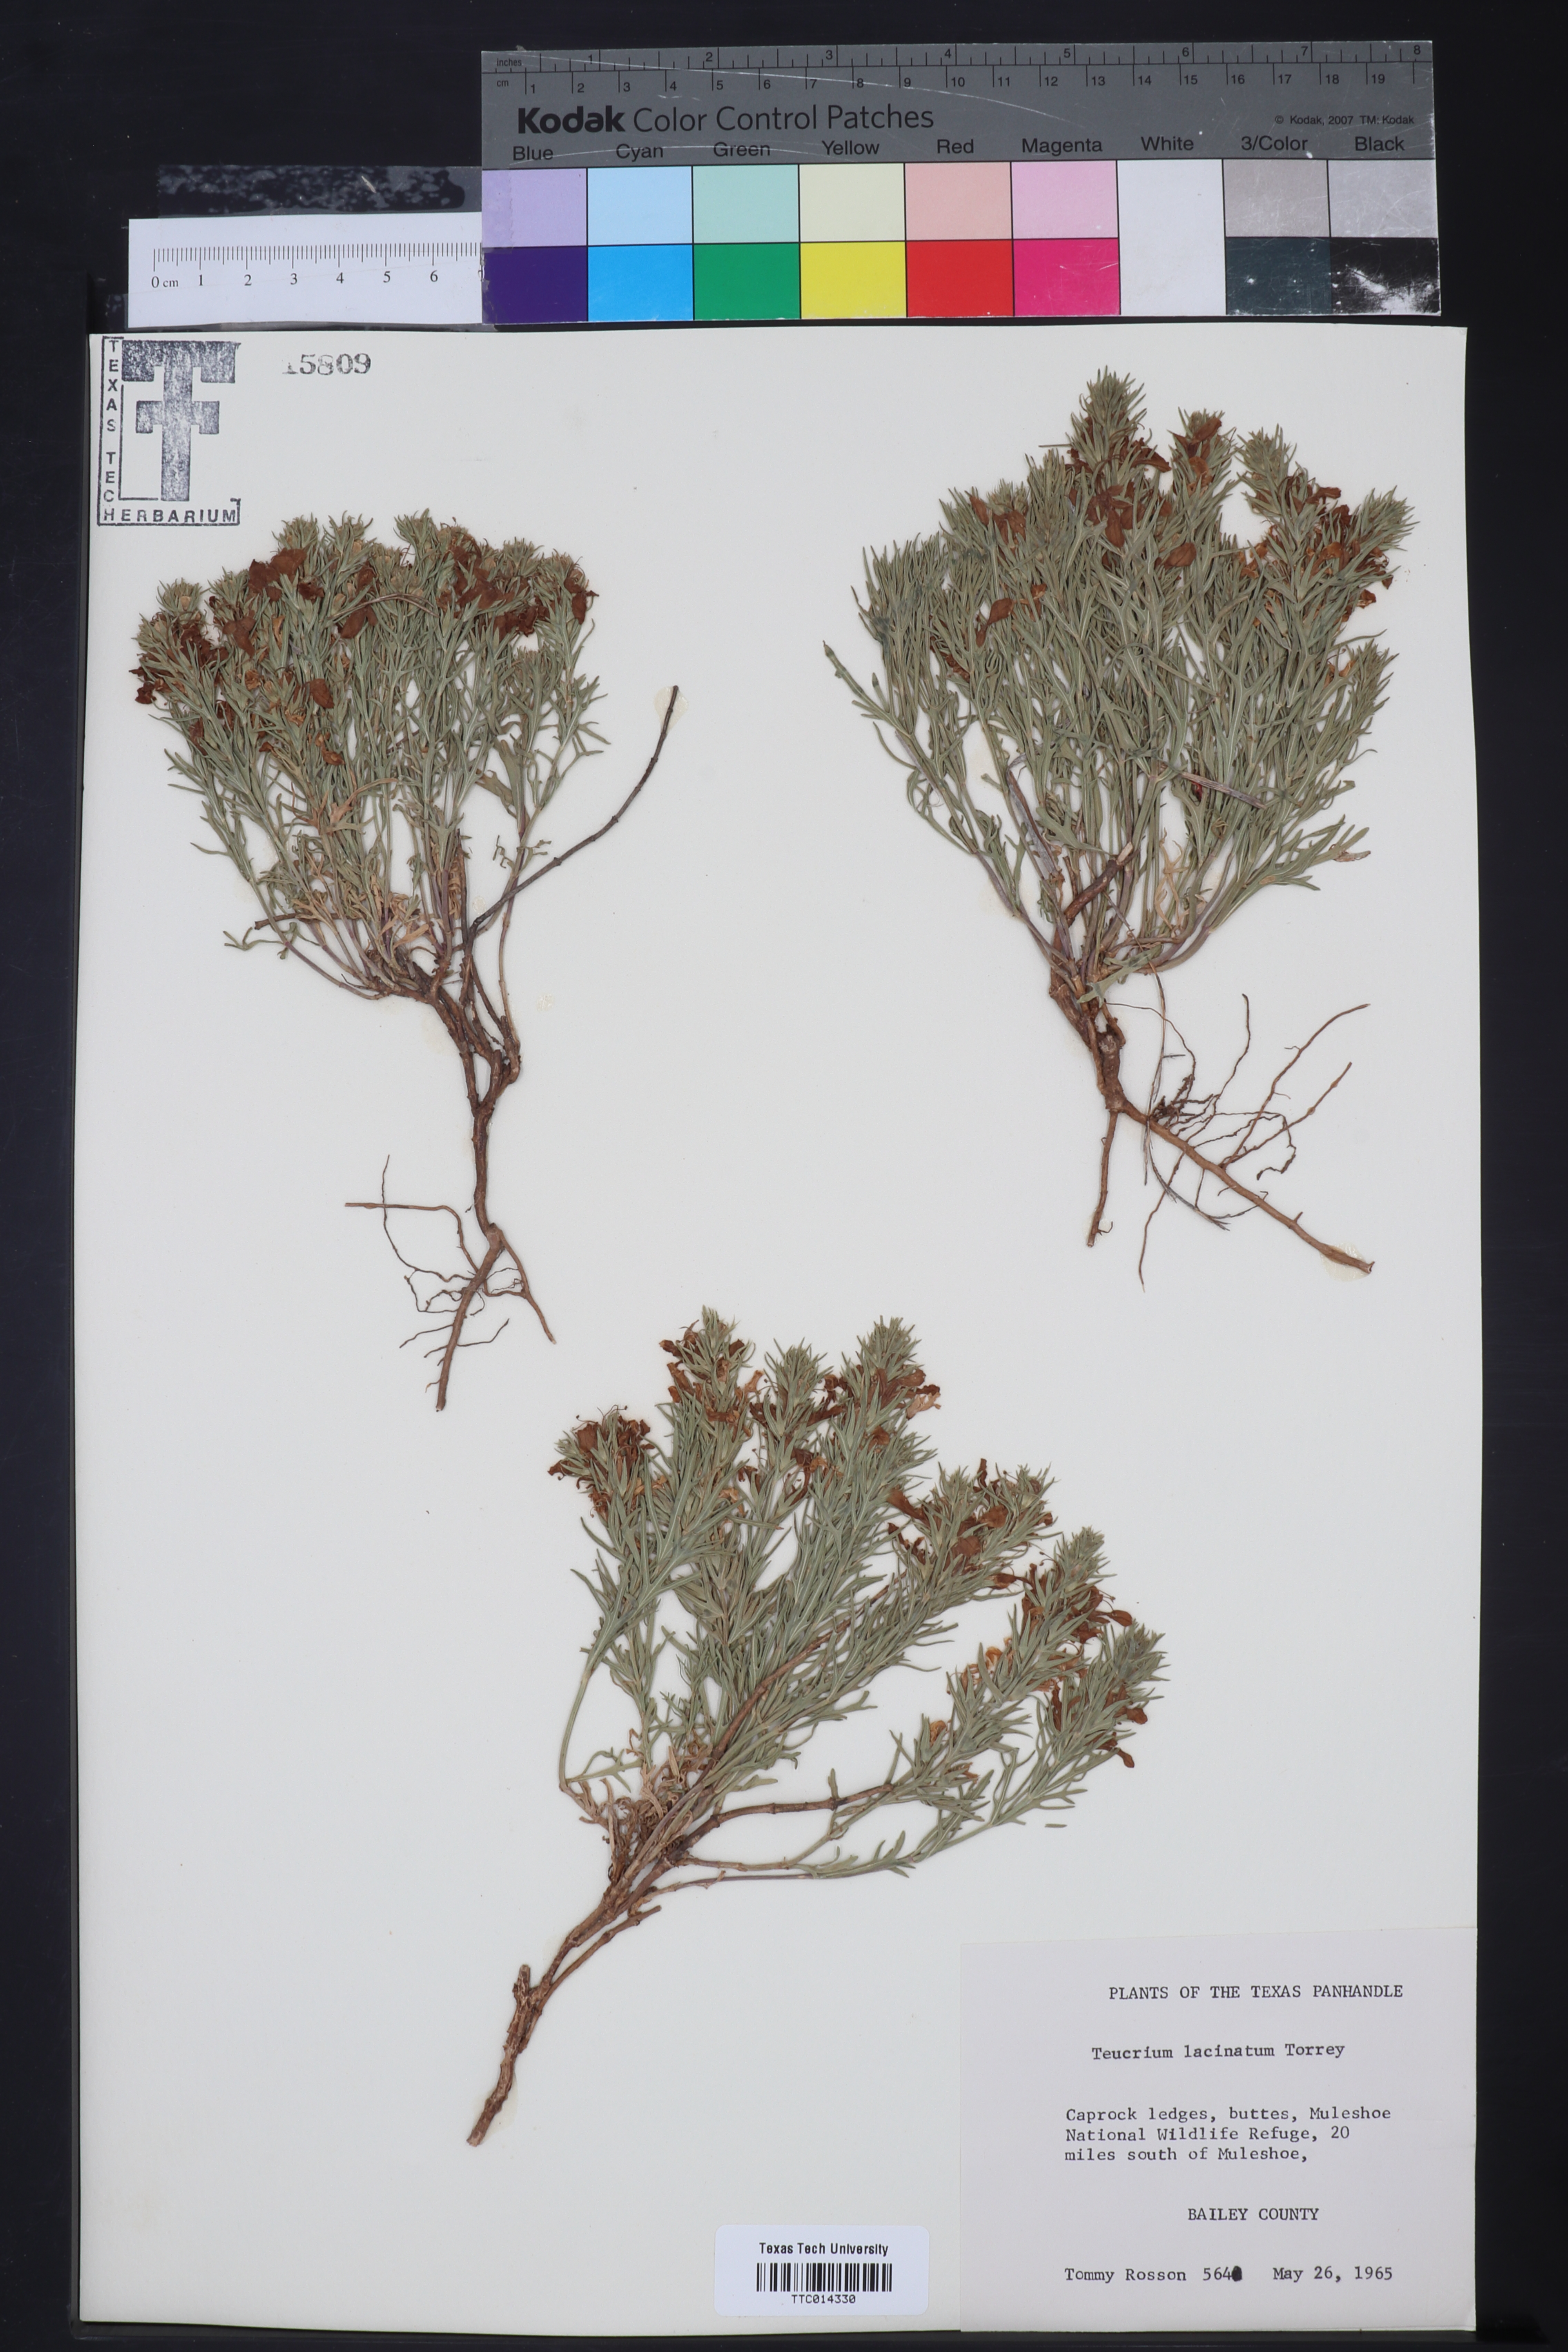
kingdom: Plantae
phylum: Tracheophyta
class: Magnoliopsida
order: Lamiales
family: Lamiaceae
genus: Teucrium
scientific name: Teucrium laciniatum
